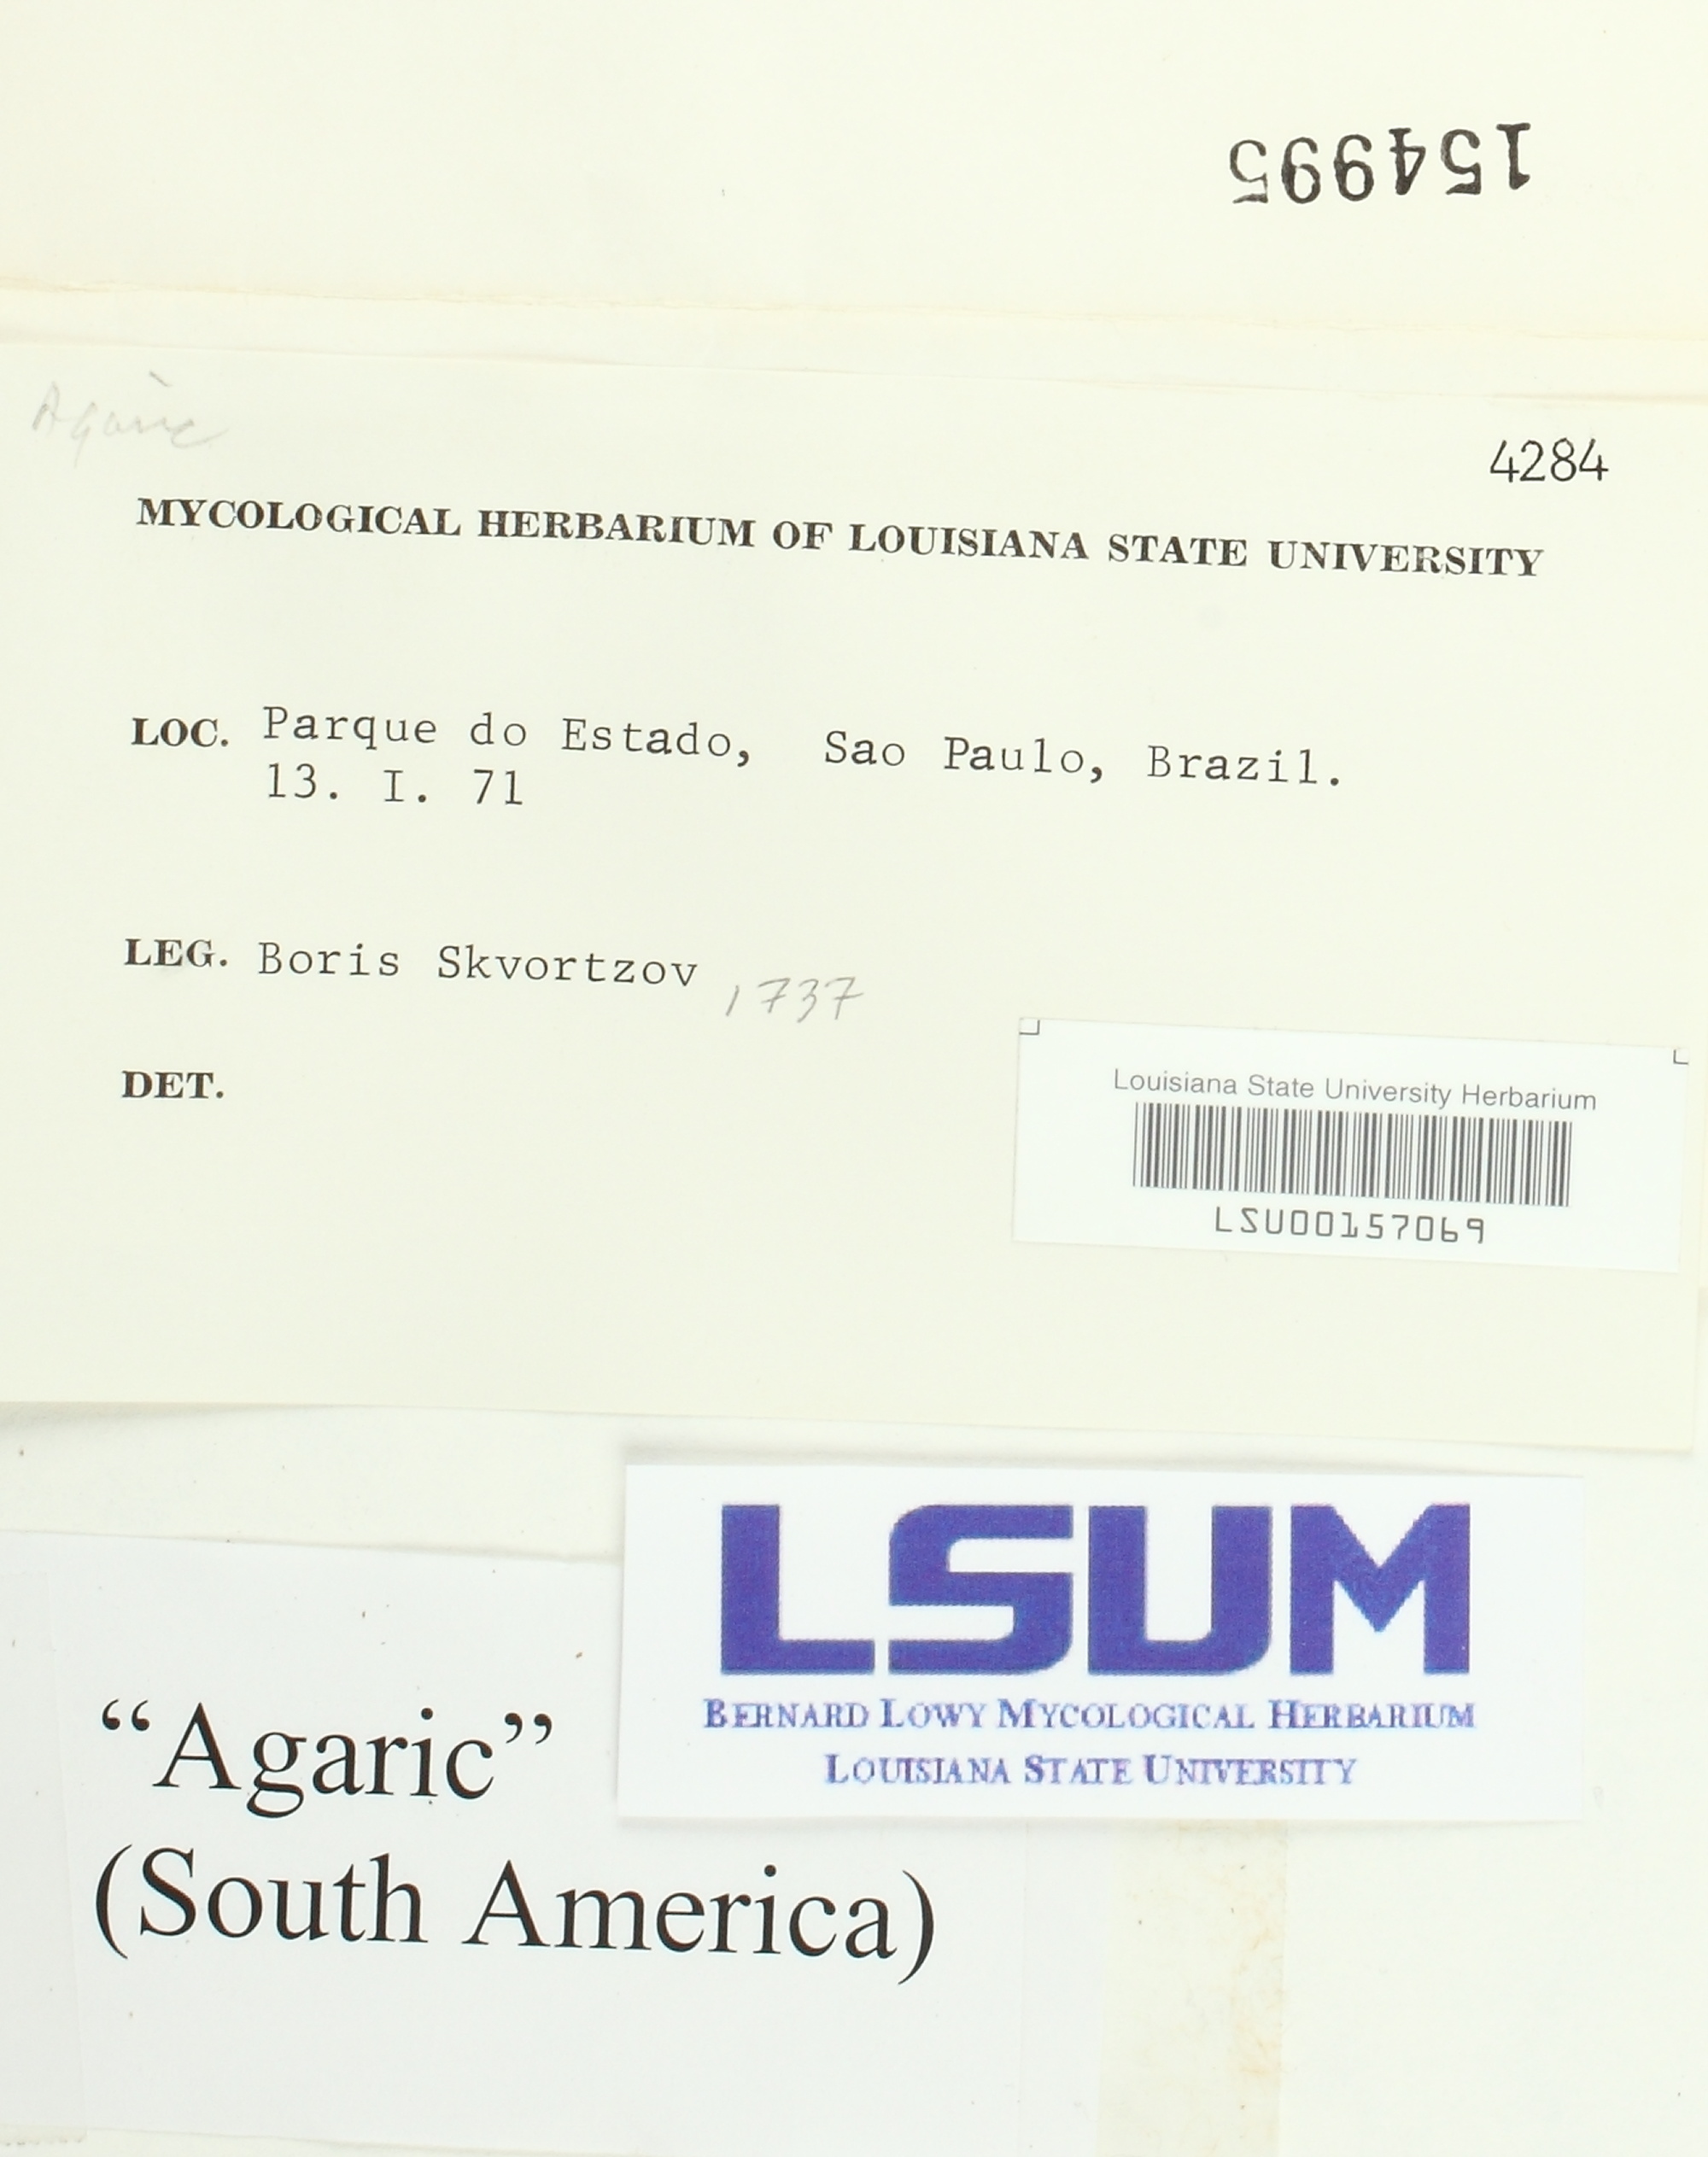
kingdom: Fungi
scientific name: Fungi
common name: Fungi
